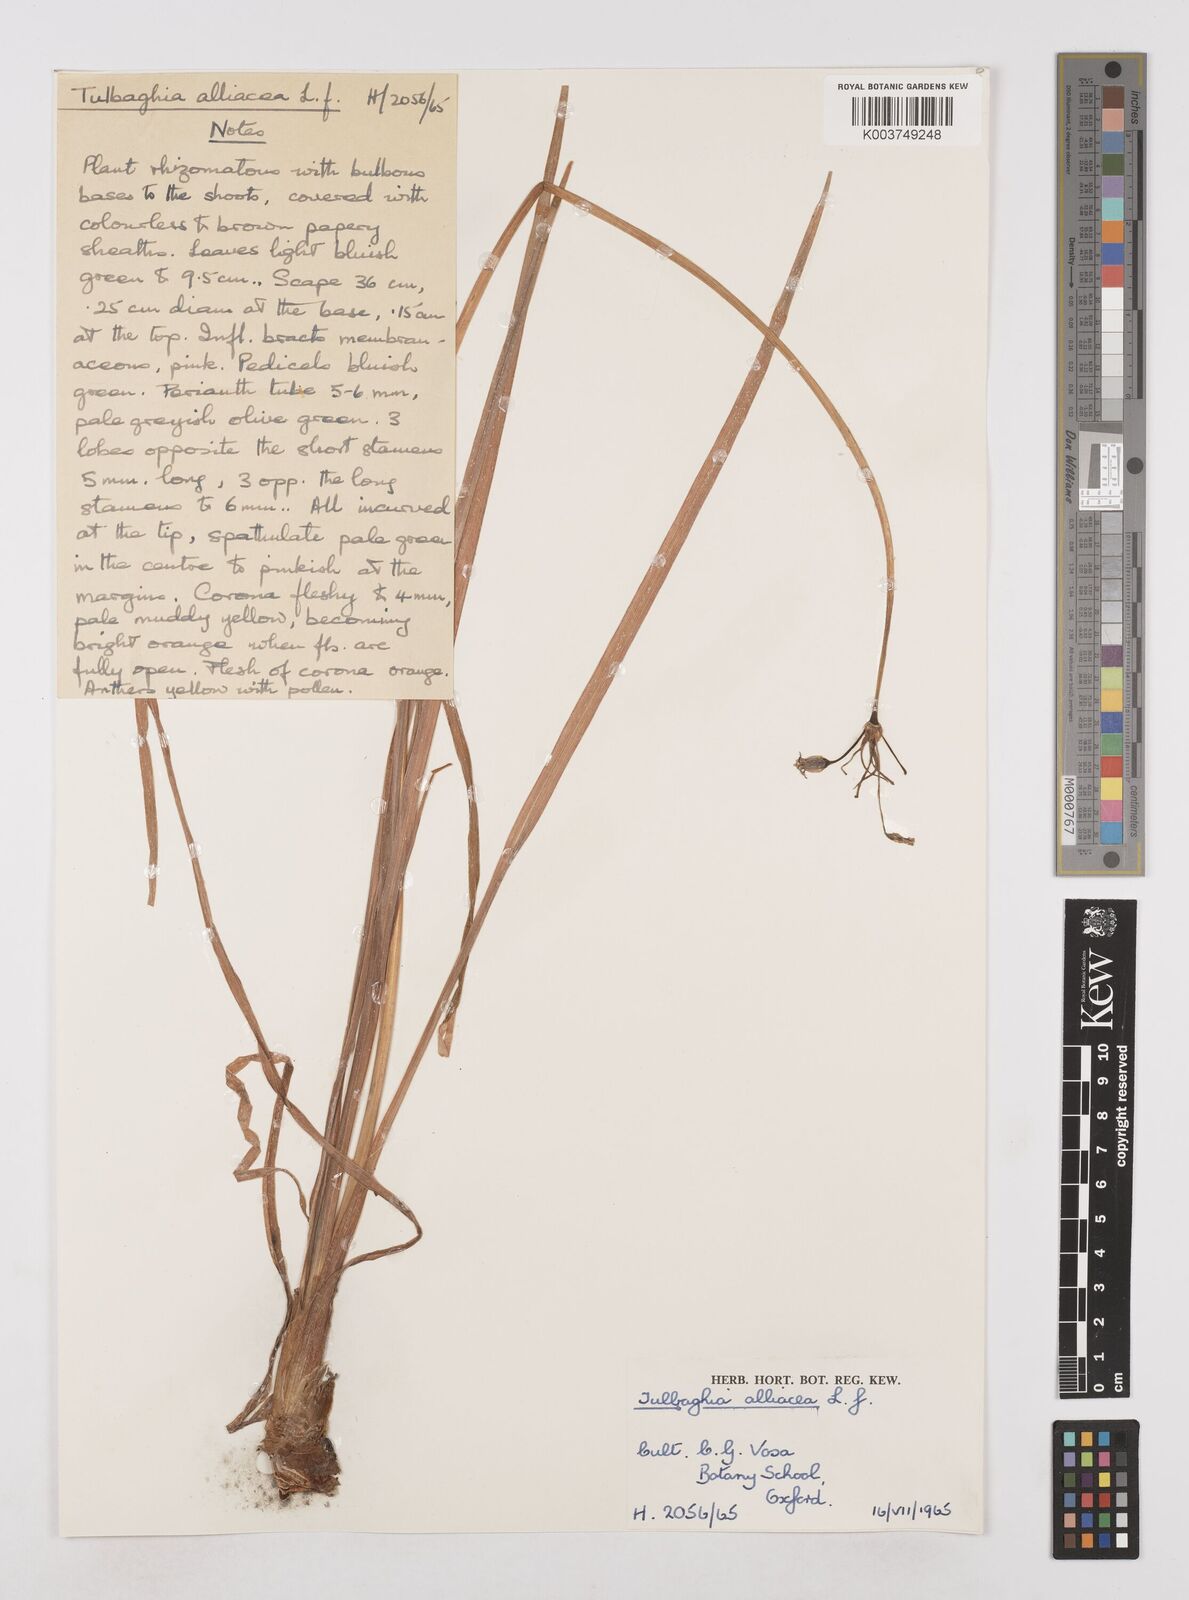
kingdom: Plantae
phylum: Tracheophyta
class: Liliopsida
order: Asparagales
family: Amaryllidaceae
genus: Tulbaghia
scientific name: Tulbaghia alliacea
